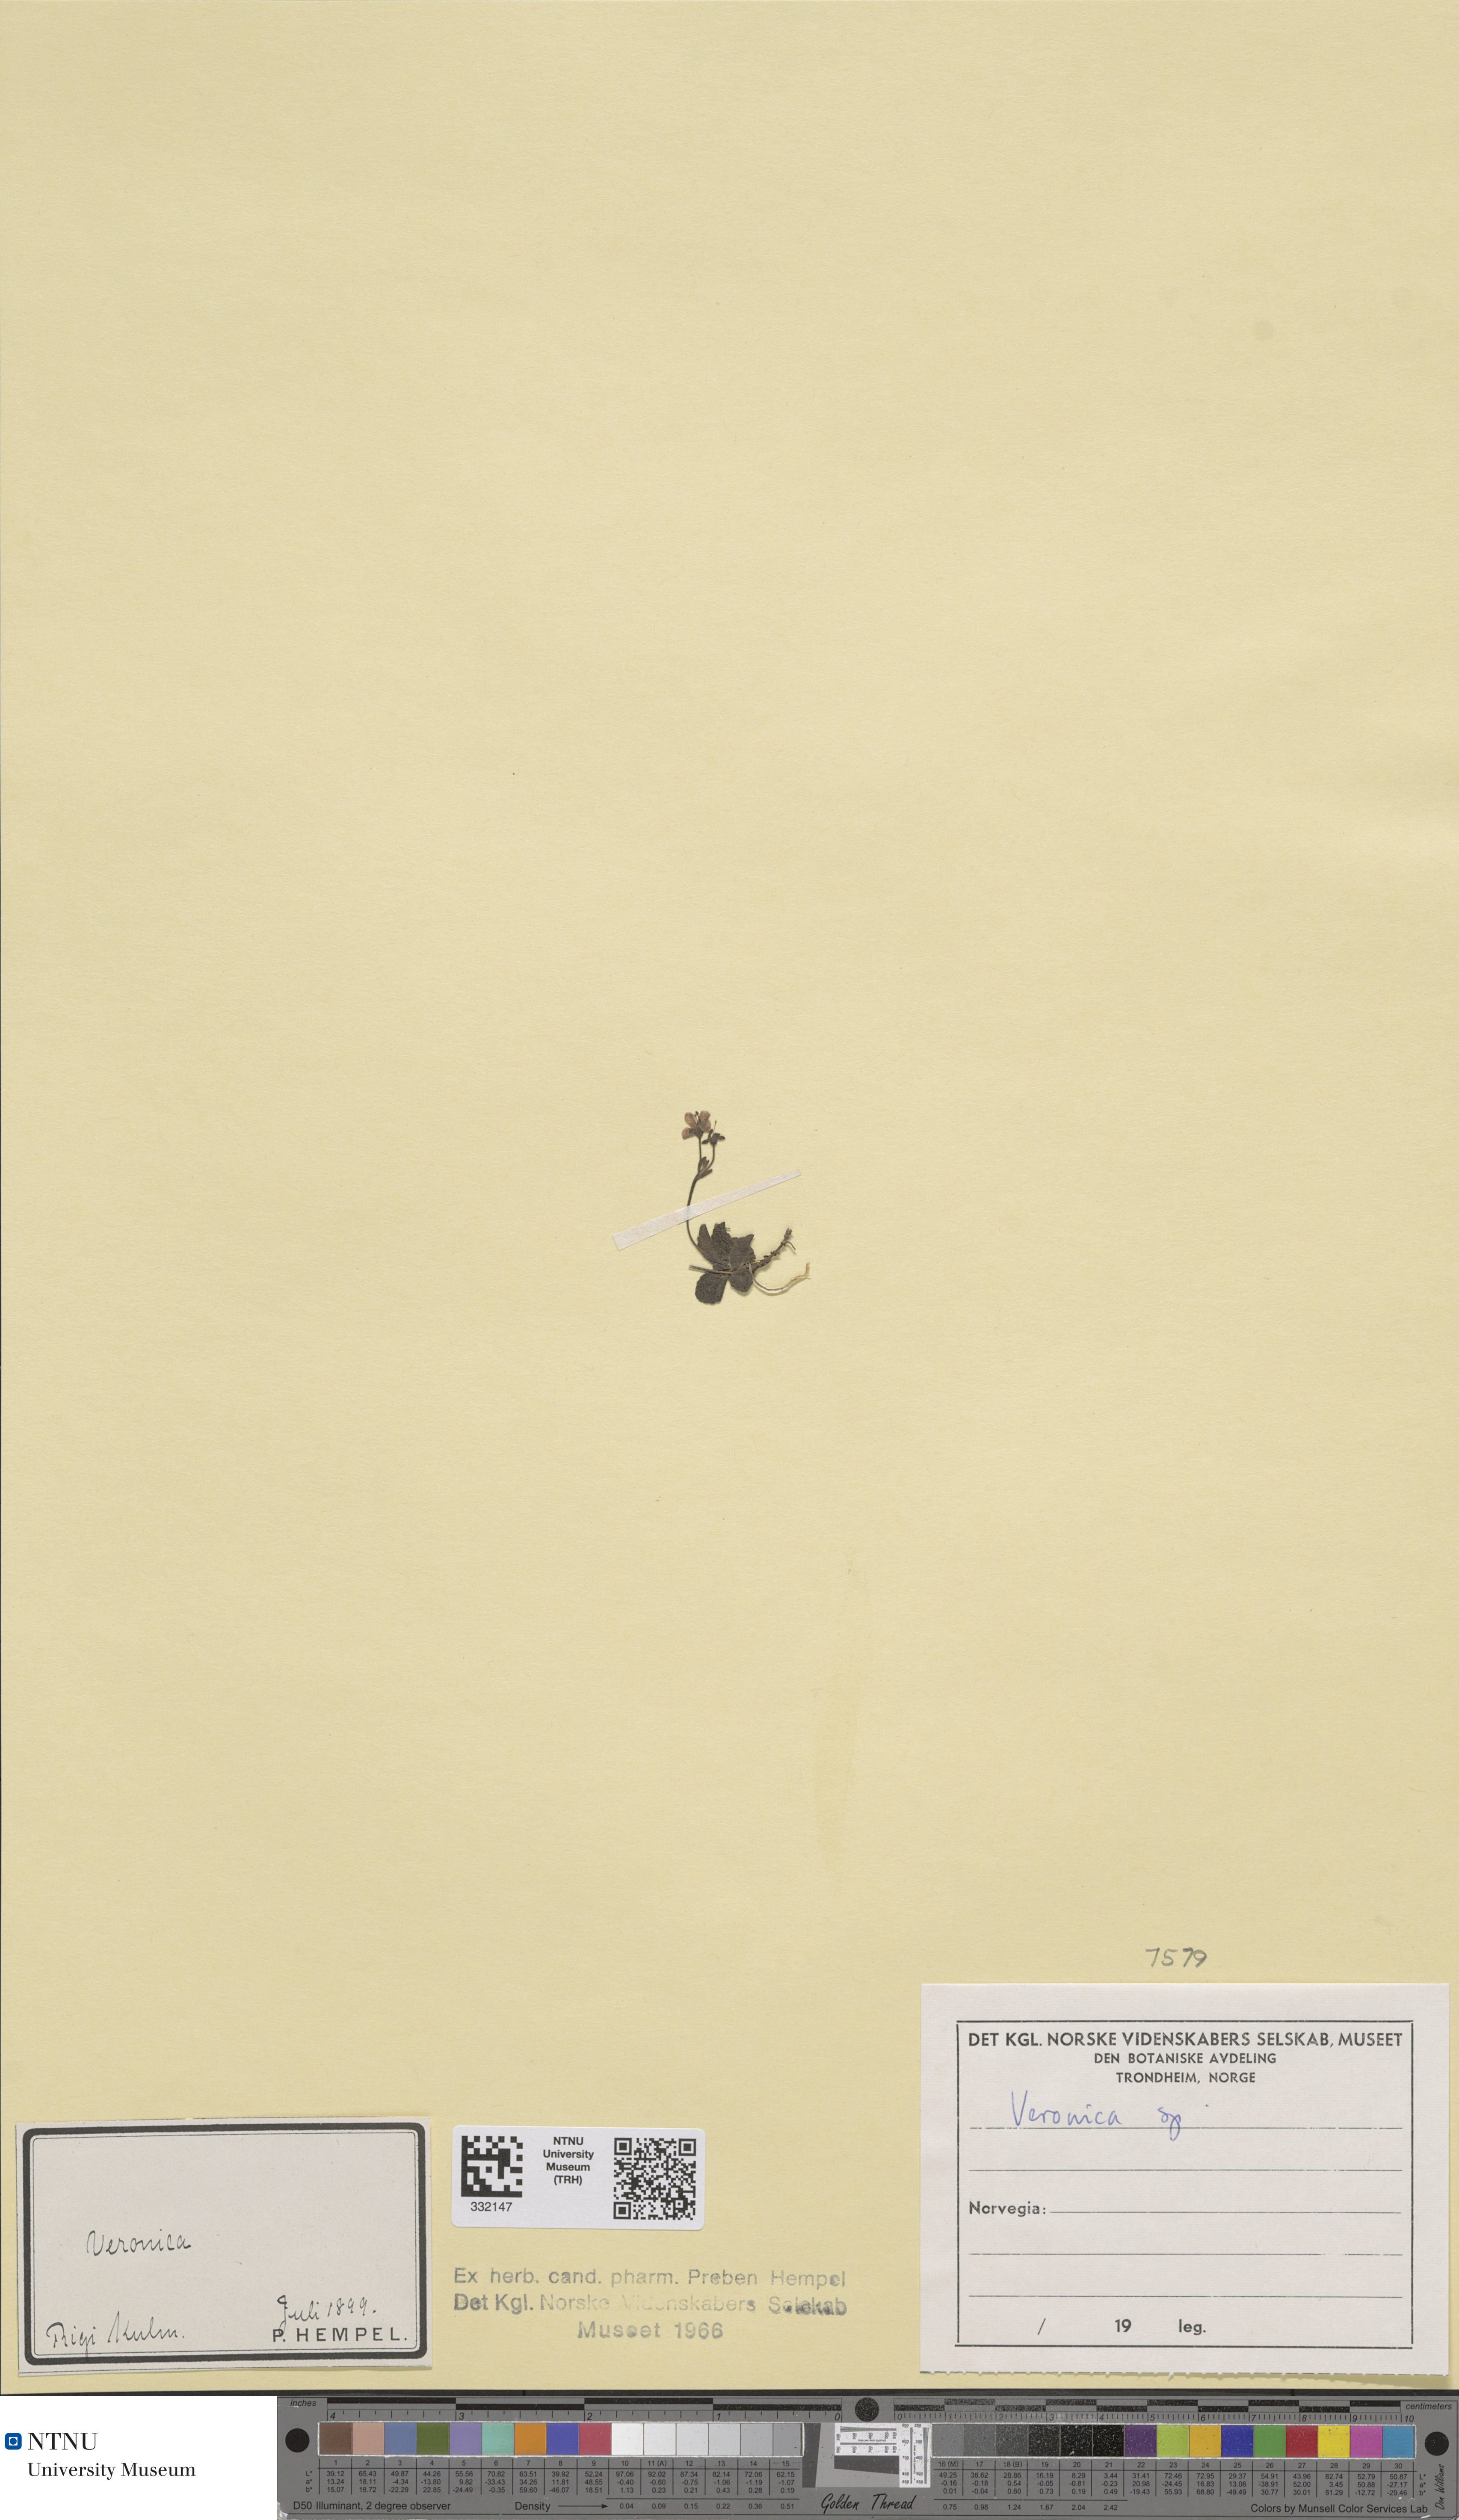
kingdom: Plantae
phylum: Tracheophyta
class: Magnoliopsida
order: Lamiales
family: Plantaginaceae
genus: Veronica
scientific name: Veronica
